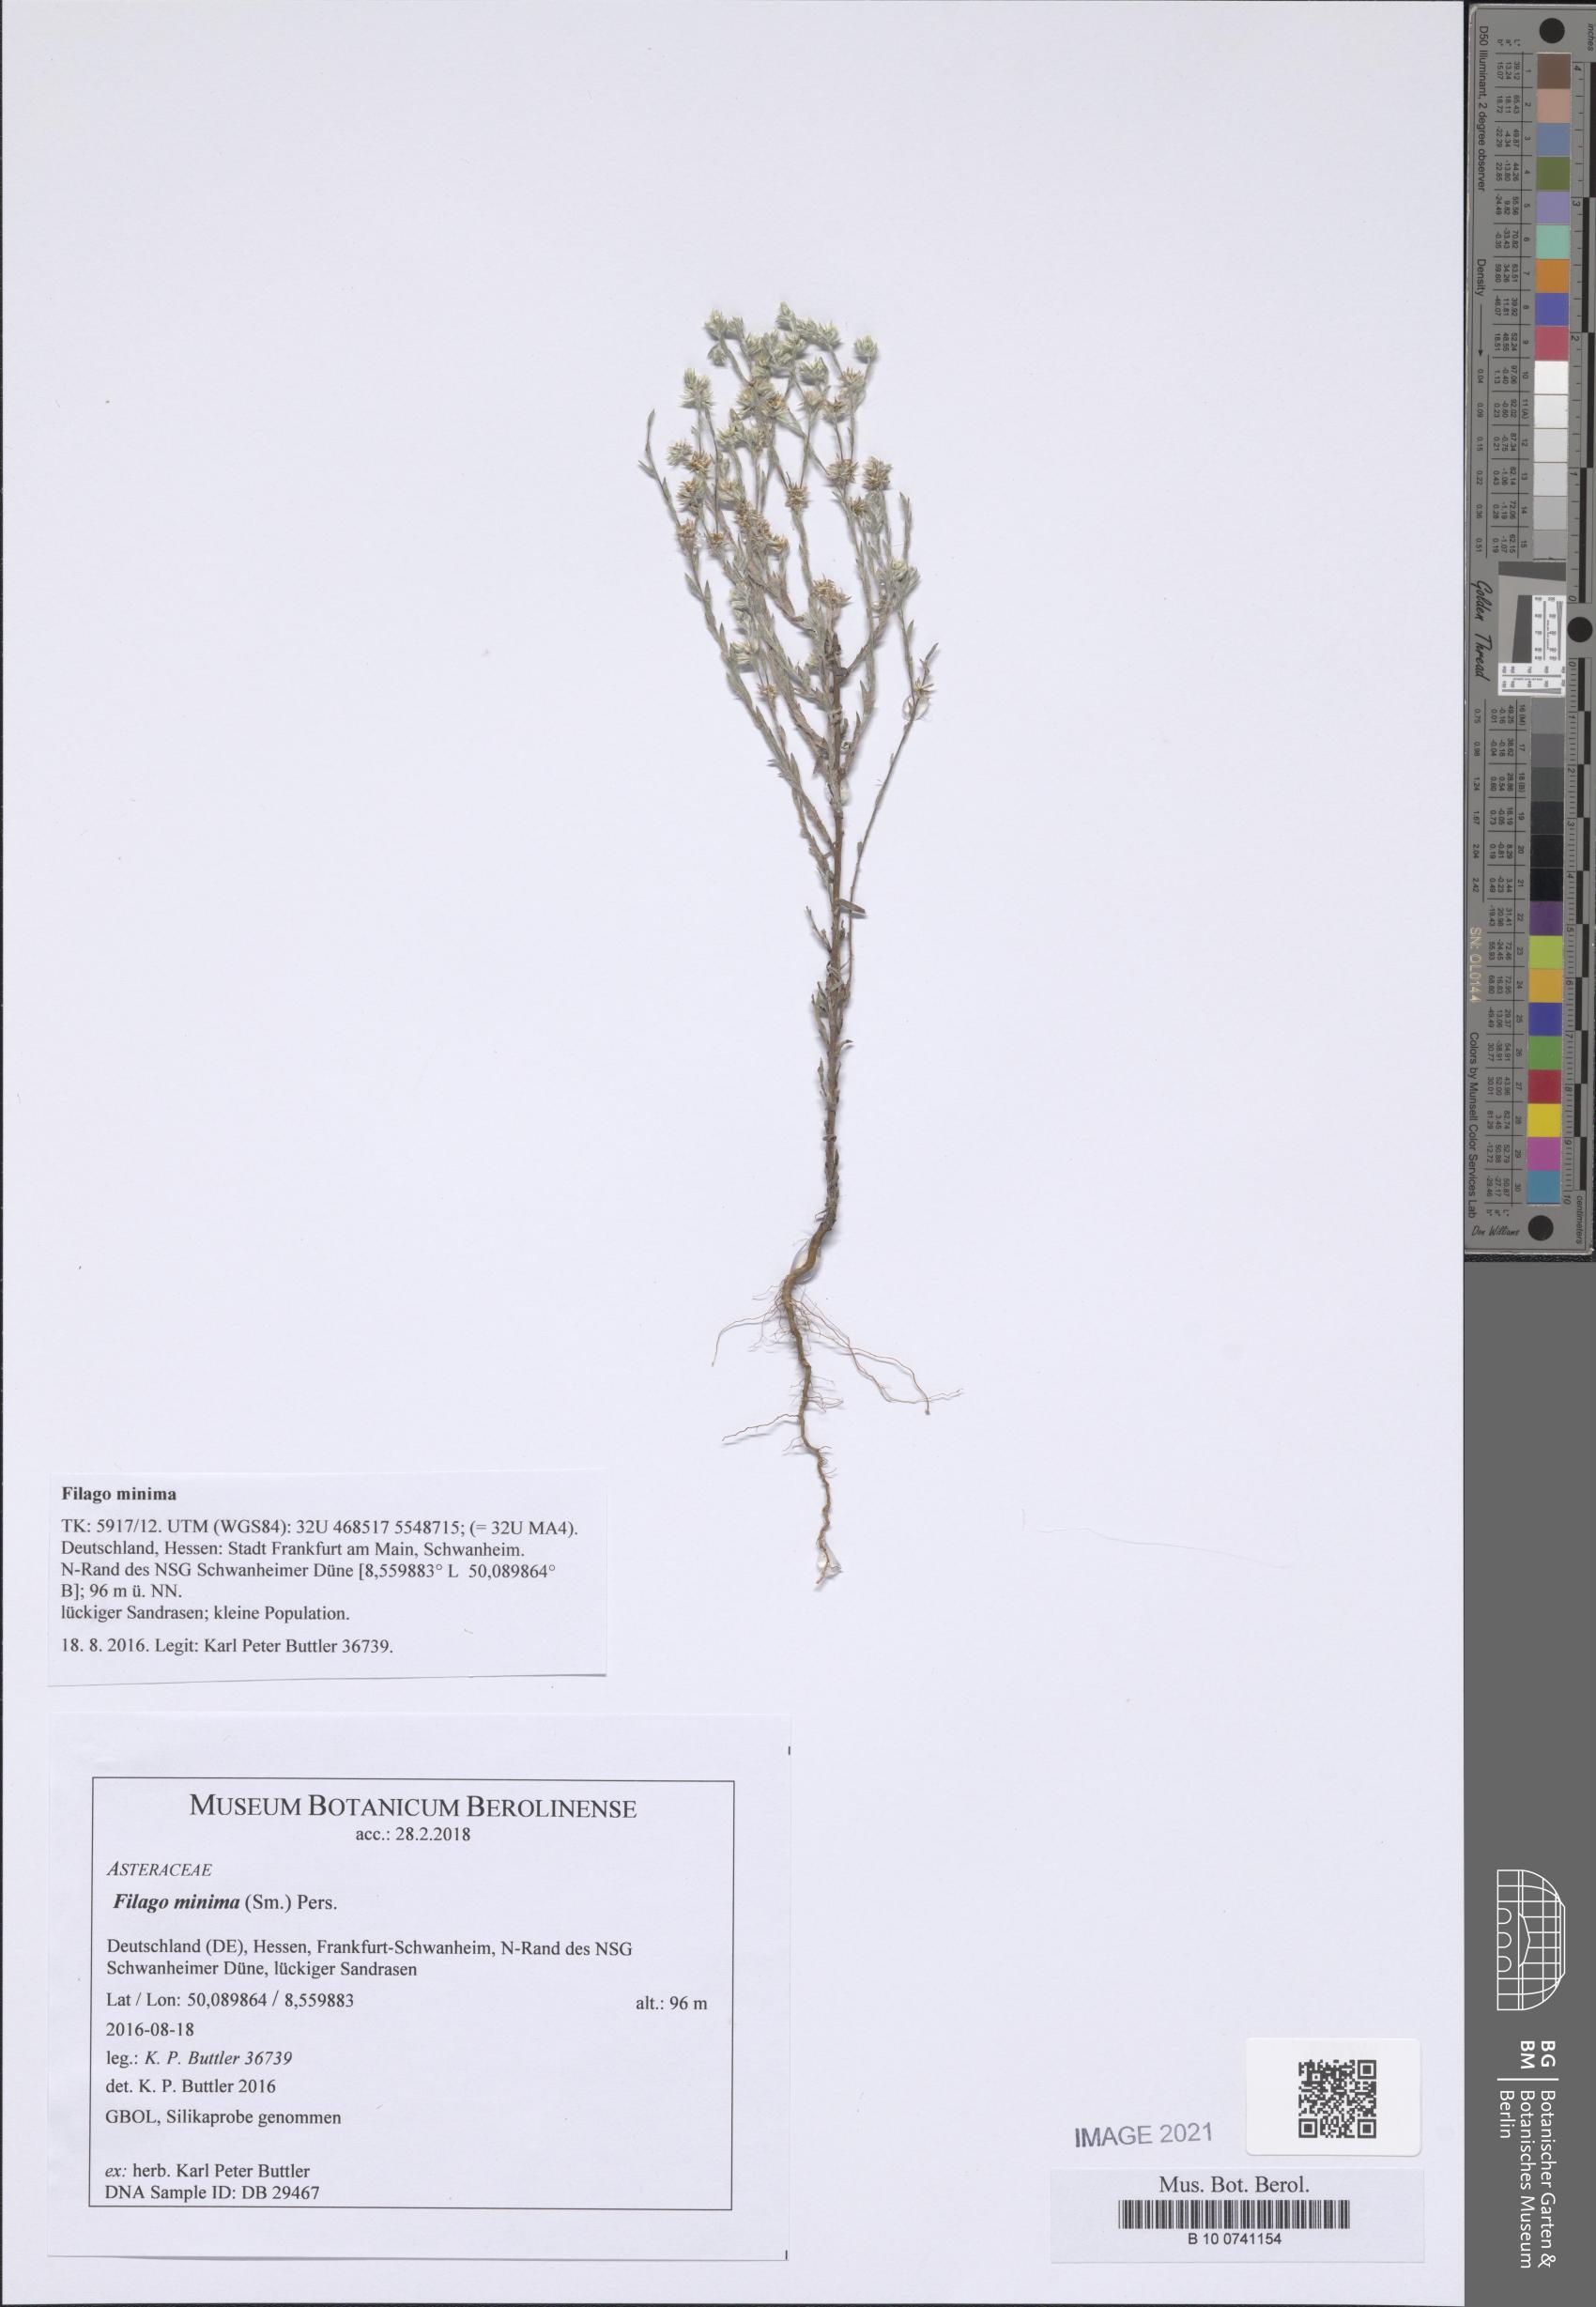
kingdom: Plantae
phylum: Tracheophyta
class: Magnoliopsida
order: Asterales
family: Asteraceae
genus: Logfia
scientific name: Logfia minima
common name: Little cottonrose
